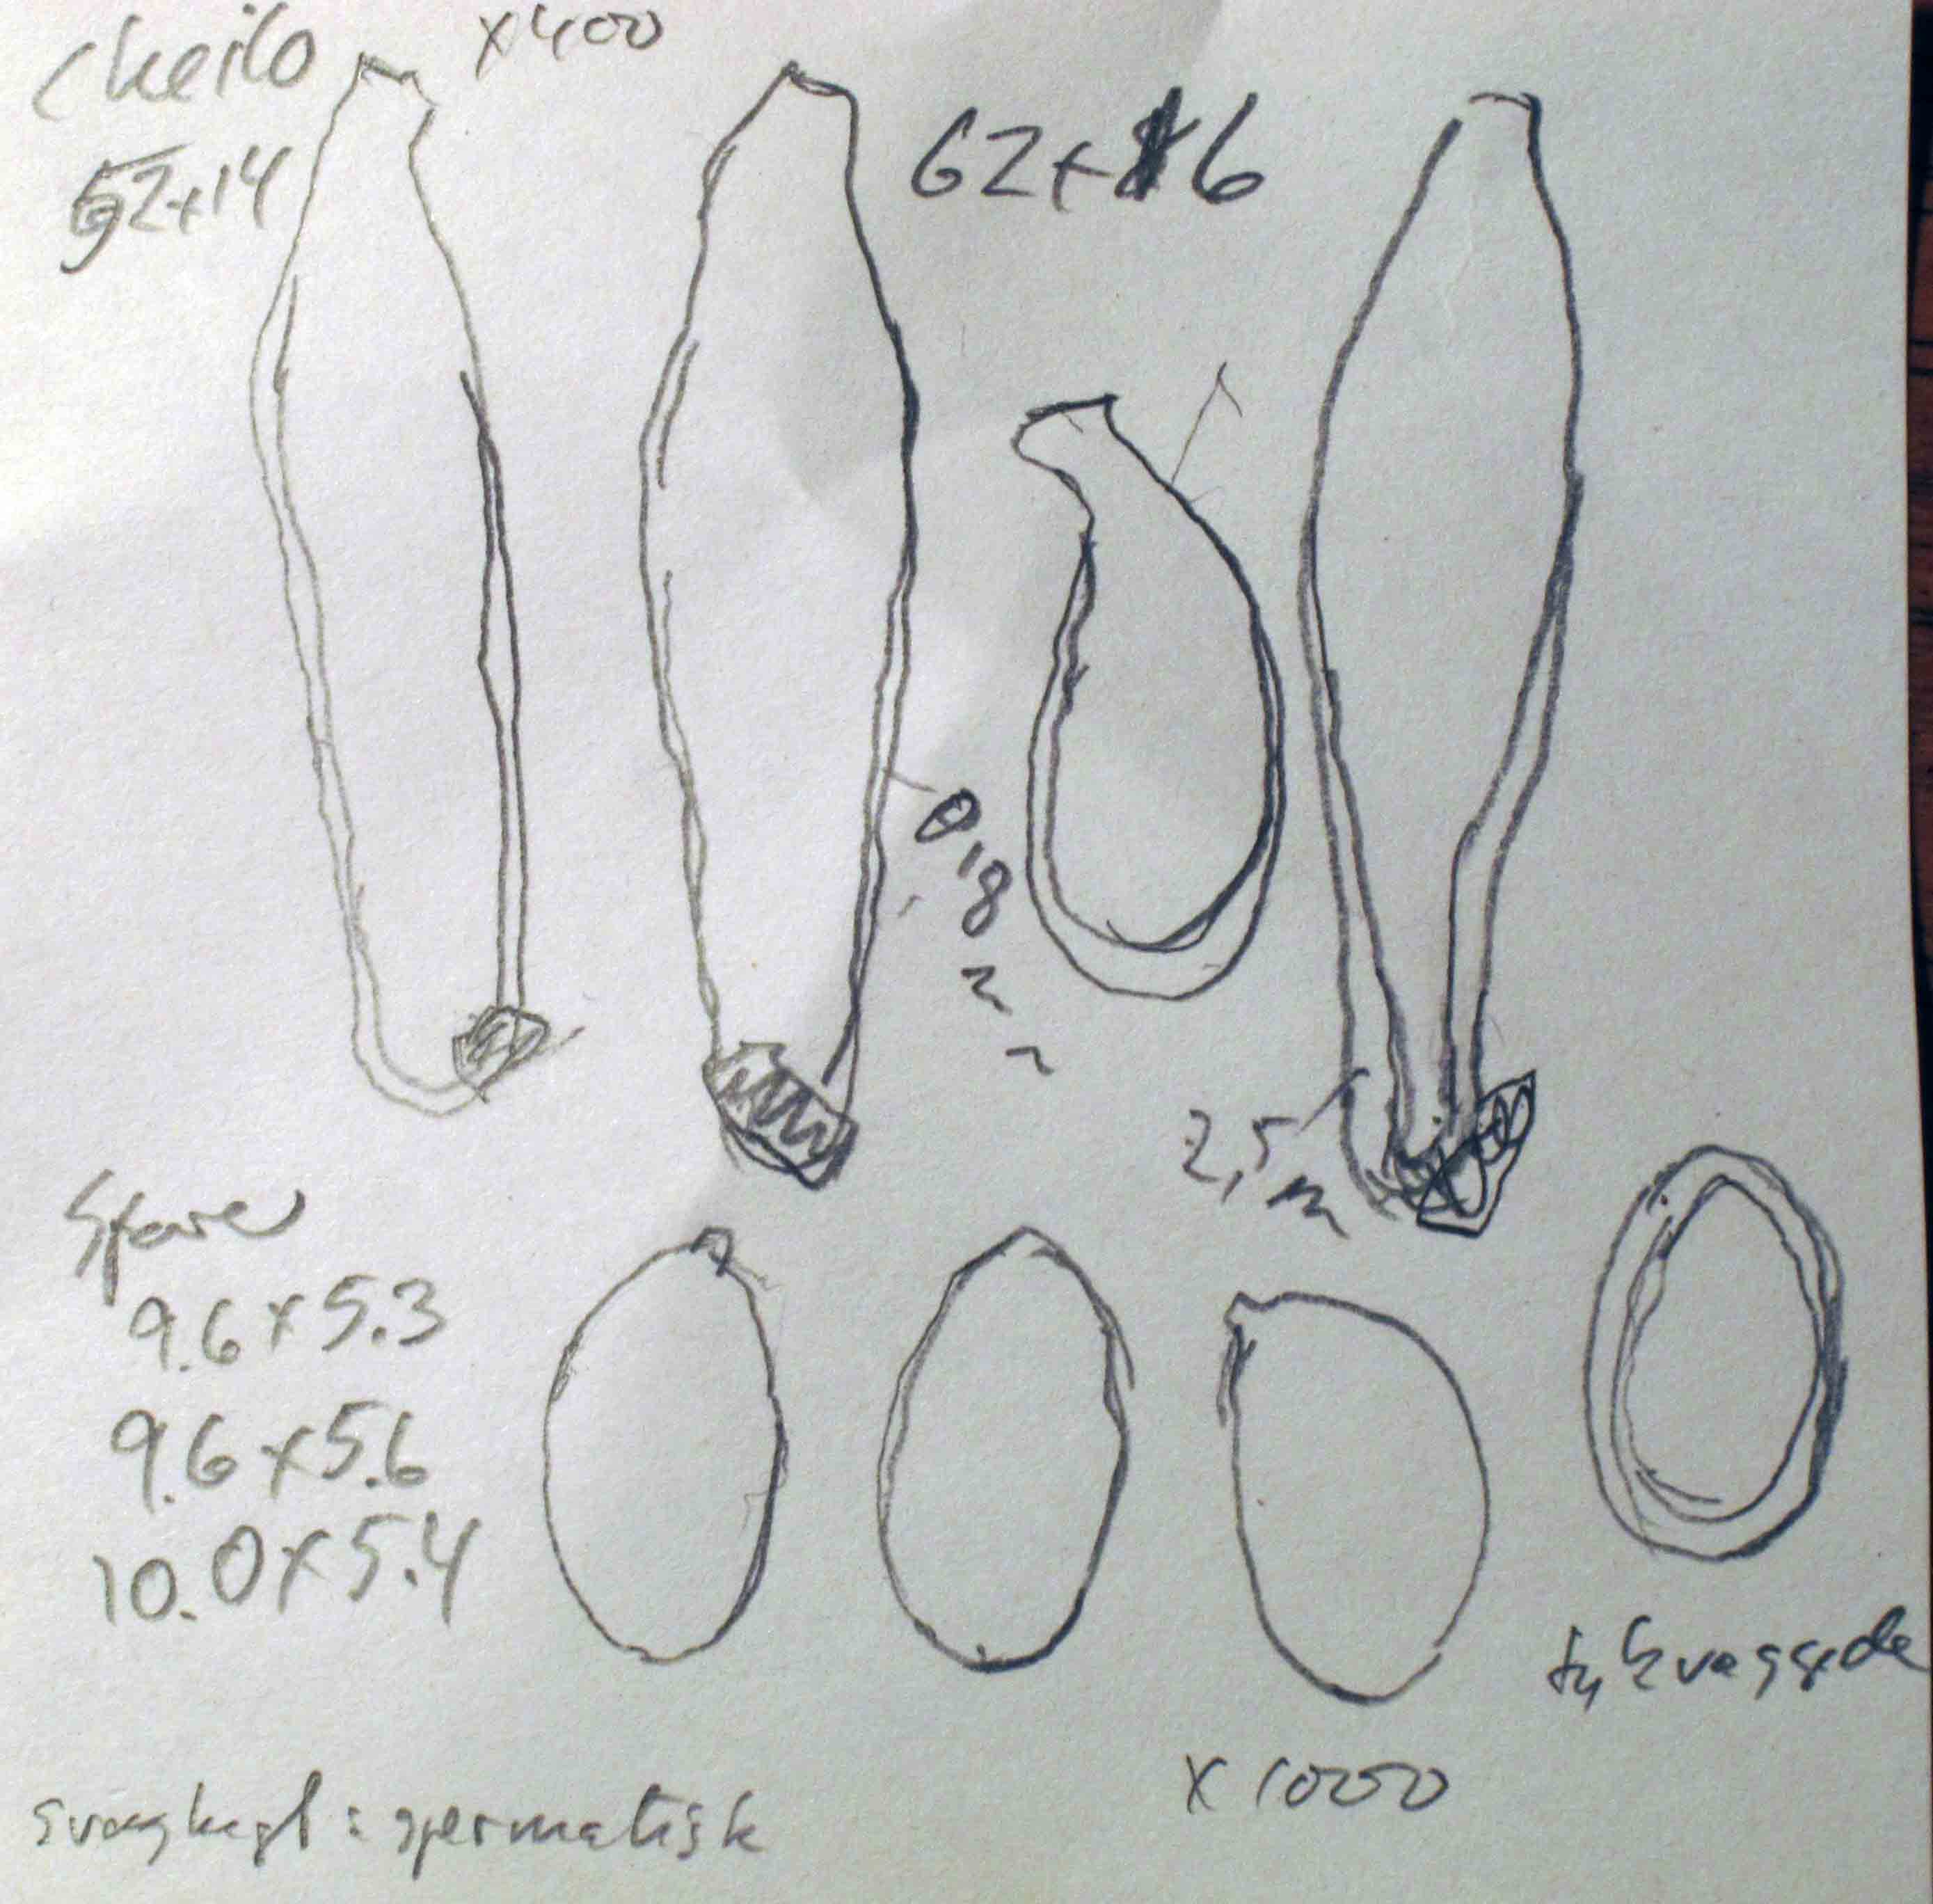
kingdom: Fungi
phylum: Basidiomycota
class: Agaricomycetes
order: Agaricales
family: Inocybaceae
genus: Inocybe
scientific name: Inocybe semifulva
